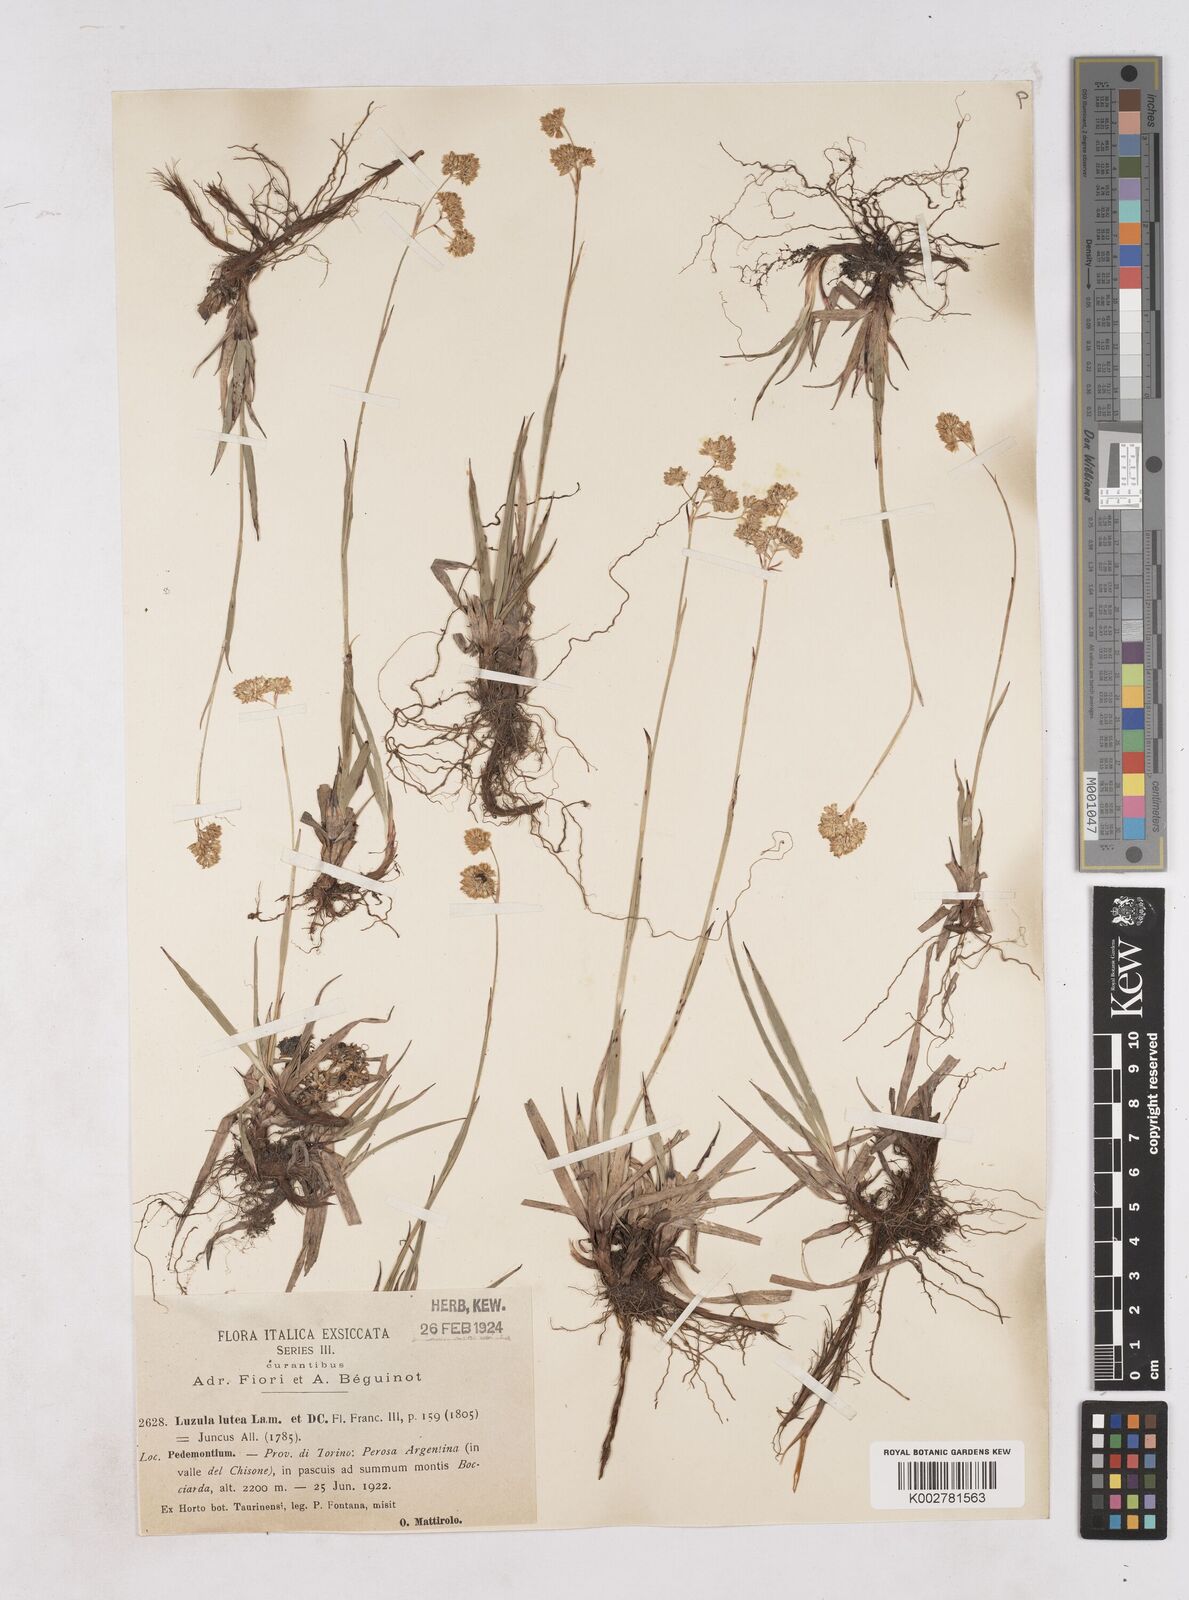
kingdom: Plantae
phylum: Tracheophyta
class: Liliopsida
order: Poales
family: Juncaceae
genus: Luzula
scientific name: Luzula lutea
